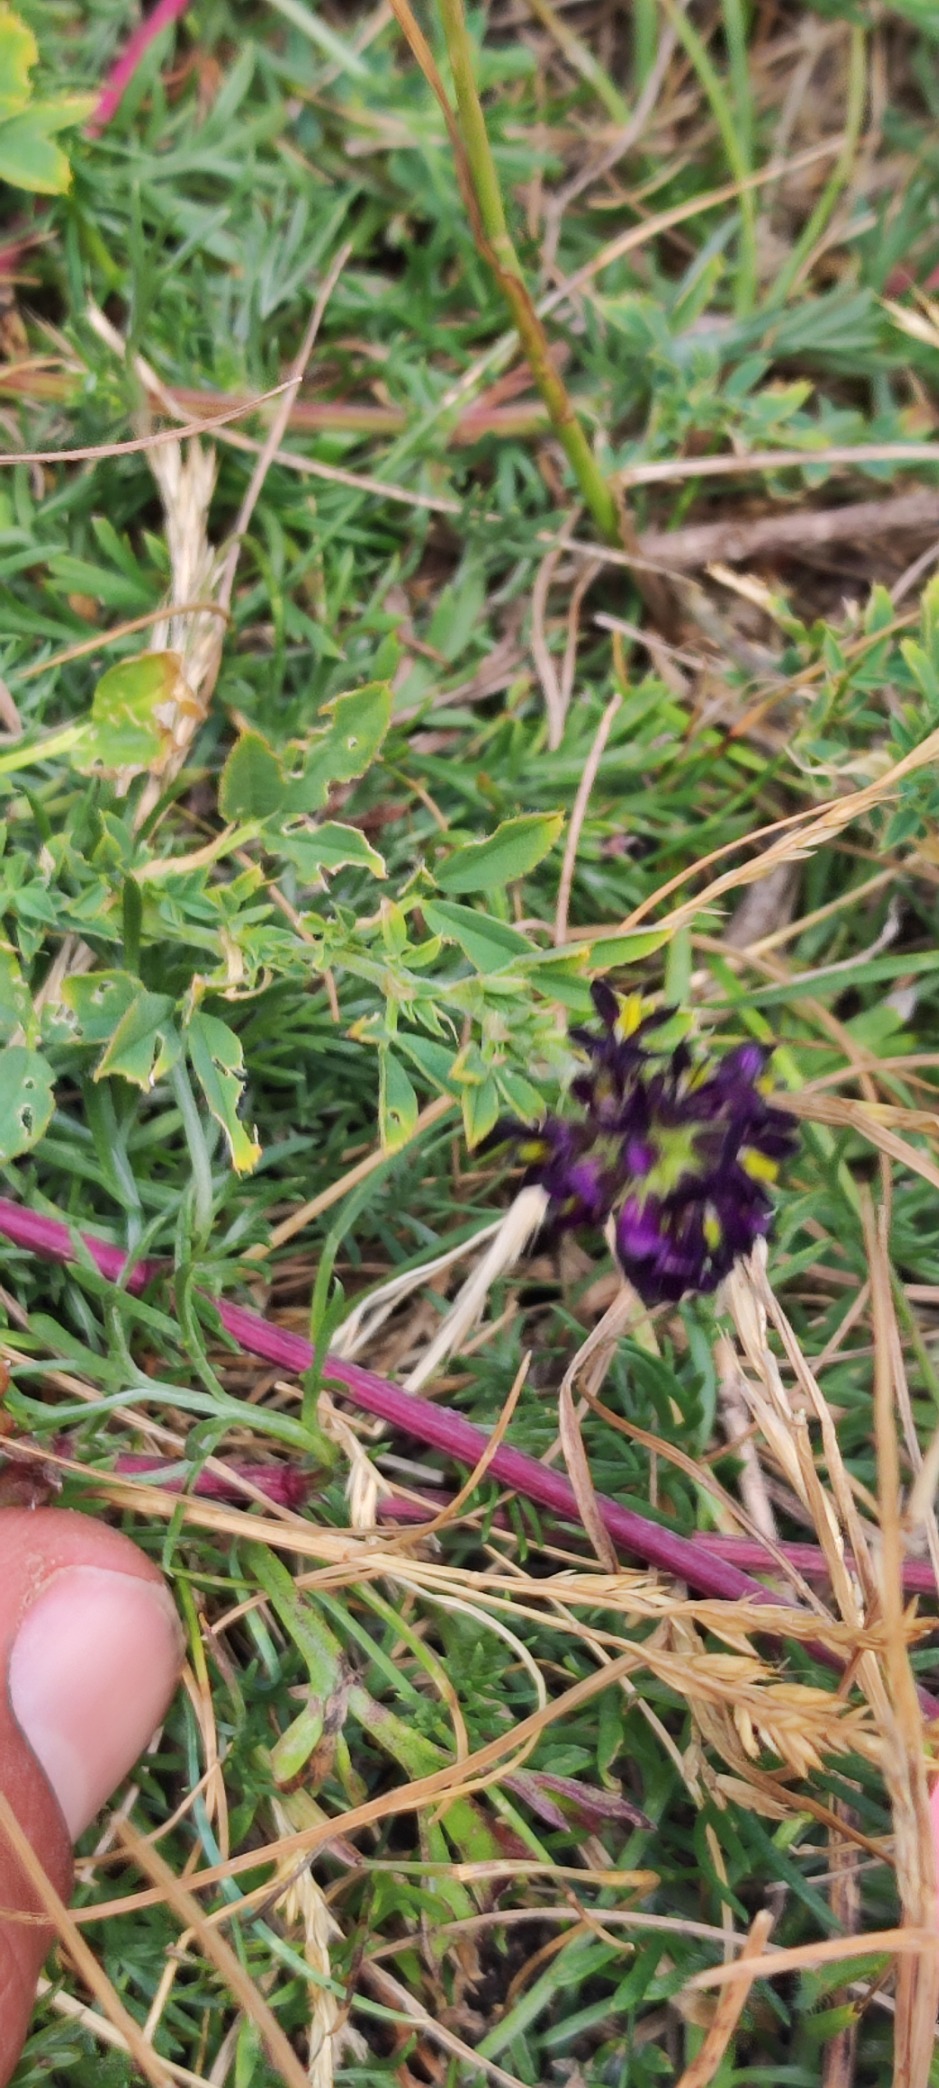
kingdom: Plantae
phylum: Tracheophyta
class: Magnoliopsida
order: Fabales
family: Fabaceae
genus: Medicago
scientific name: Medicago varia
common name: Sand-lucerne
